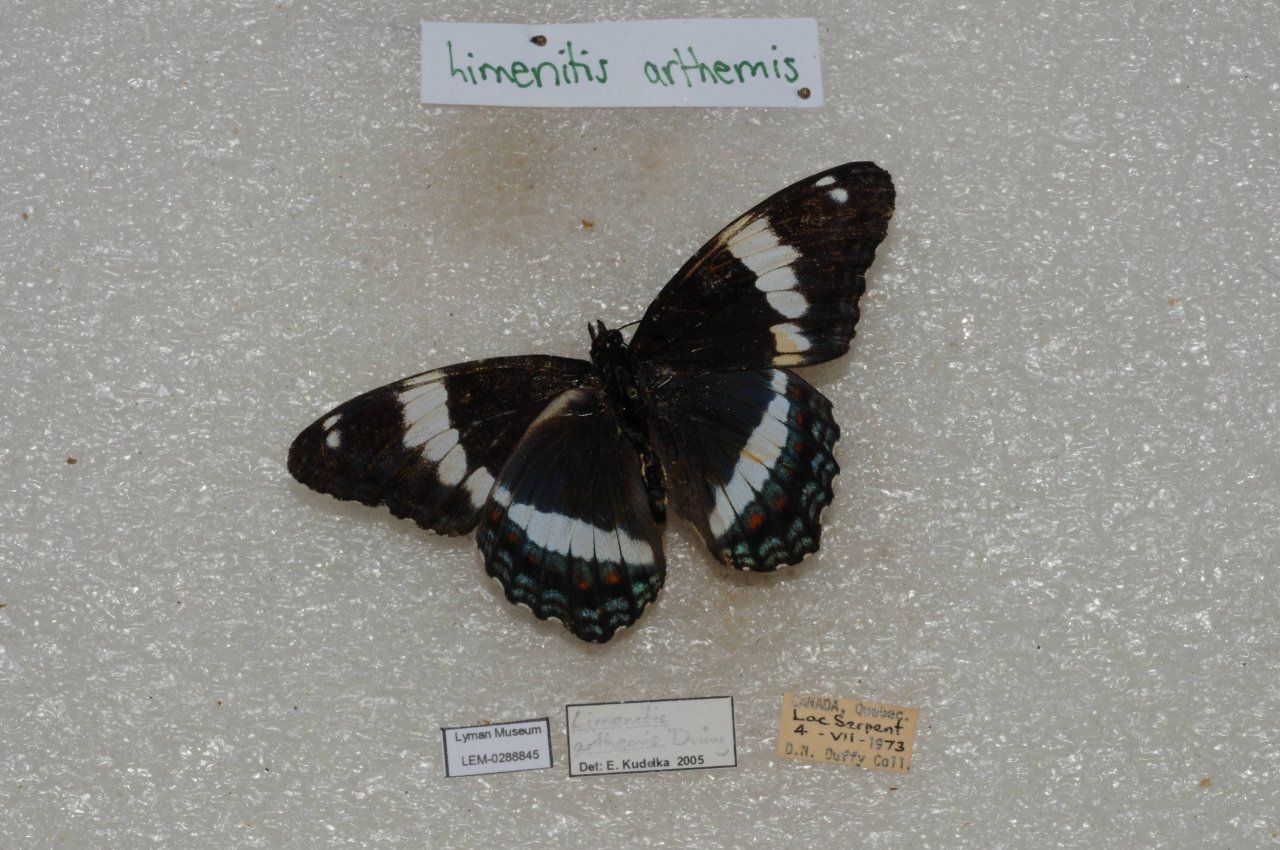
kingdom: Animalia
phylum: Arthropoda
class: Insecta
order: Lepidoptera
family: Nymphalidae
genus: Limenitis
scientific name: Limenitis arthemis
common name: Red-spotted Admiral
